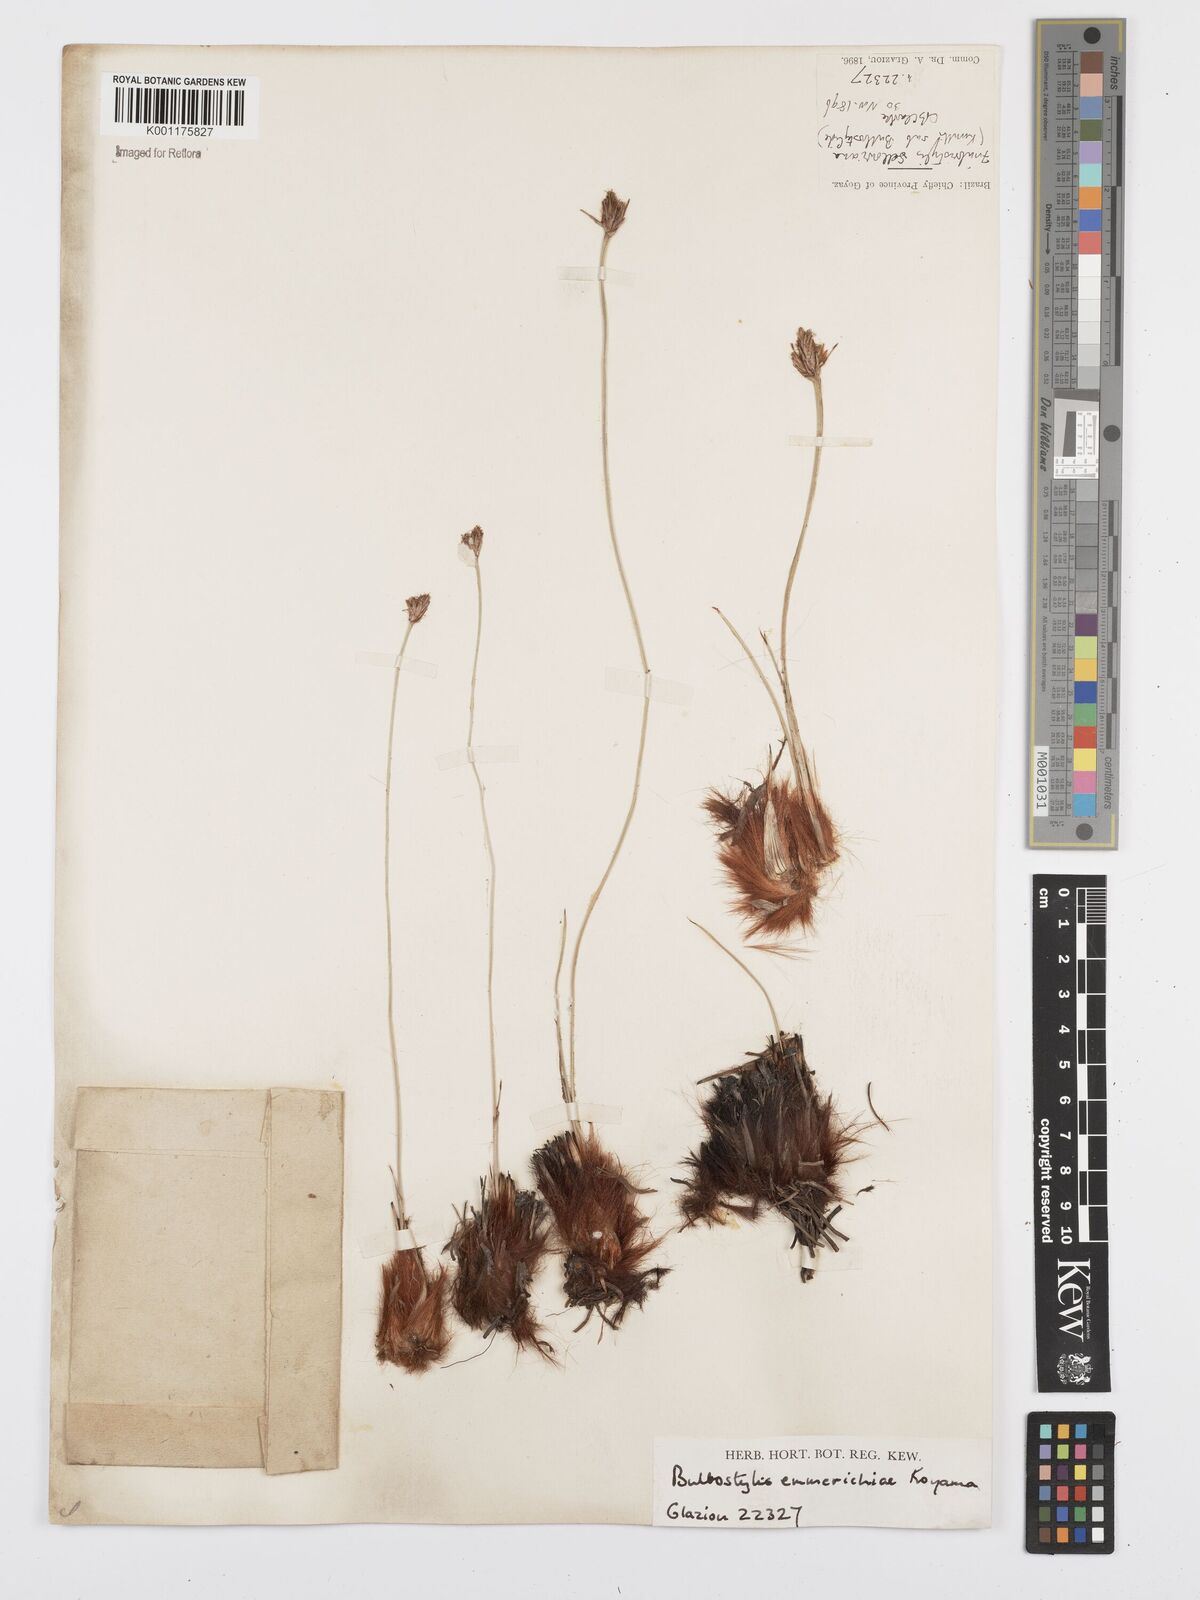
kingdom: Plantae
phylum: Tracheophyta
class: Liliopsida
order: Poales
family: Cyperaceae
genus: Bulbostylis
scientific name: Bulbostylis emmerichiae
